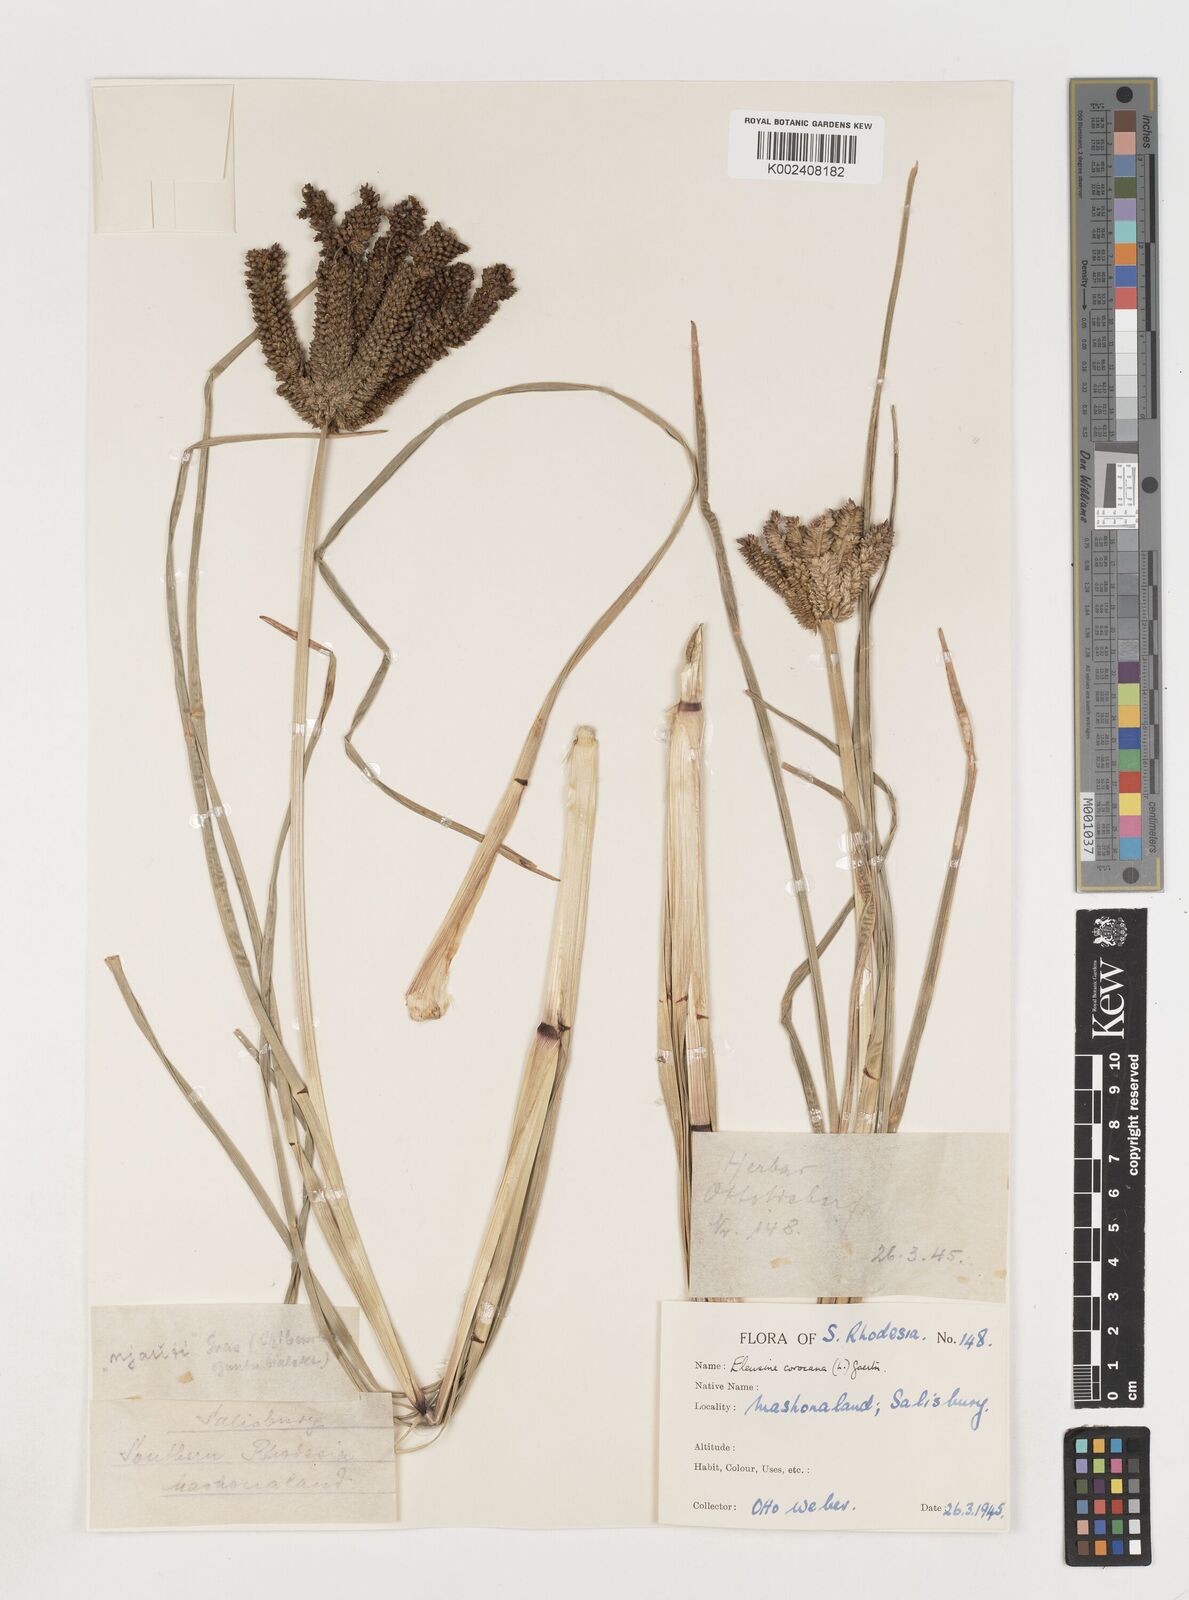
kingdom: Plantae
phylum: Tracheophyta
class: Liliopsida
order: Poales
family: Poaceae
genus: Eleusine
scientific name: Eleusine coracana
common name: Finger millet
